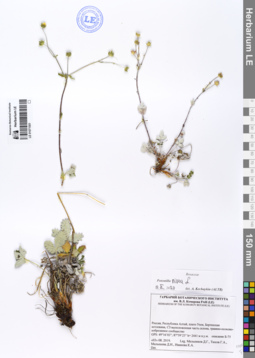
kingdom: Plantae
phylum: Tracheophyta
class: Magnoliopsida
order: Rosales
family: Rosaceae
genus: Potentilla
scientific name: Potentilla nivea
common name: Snow cinquefoil
